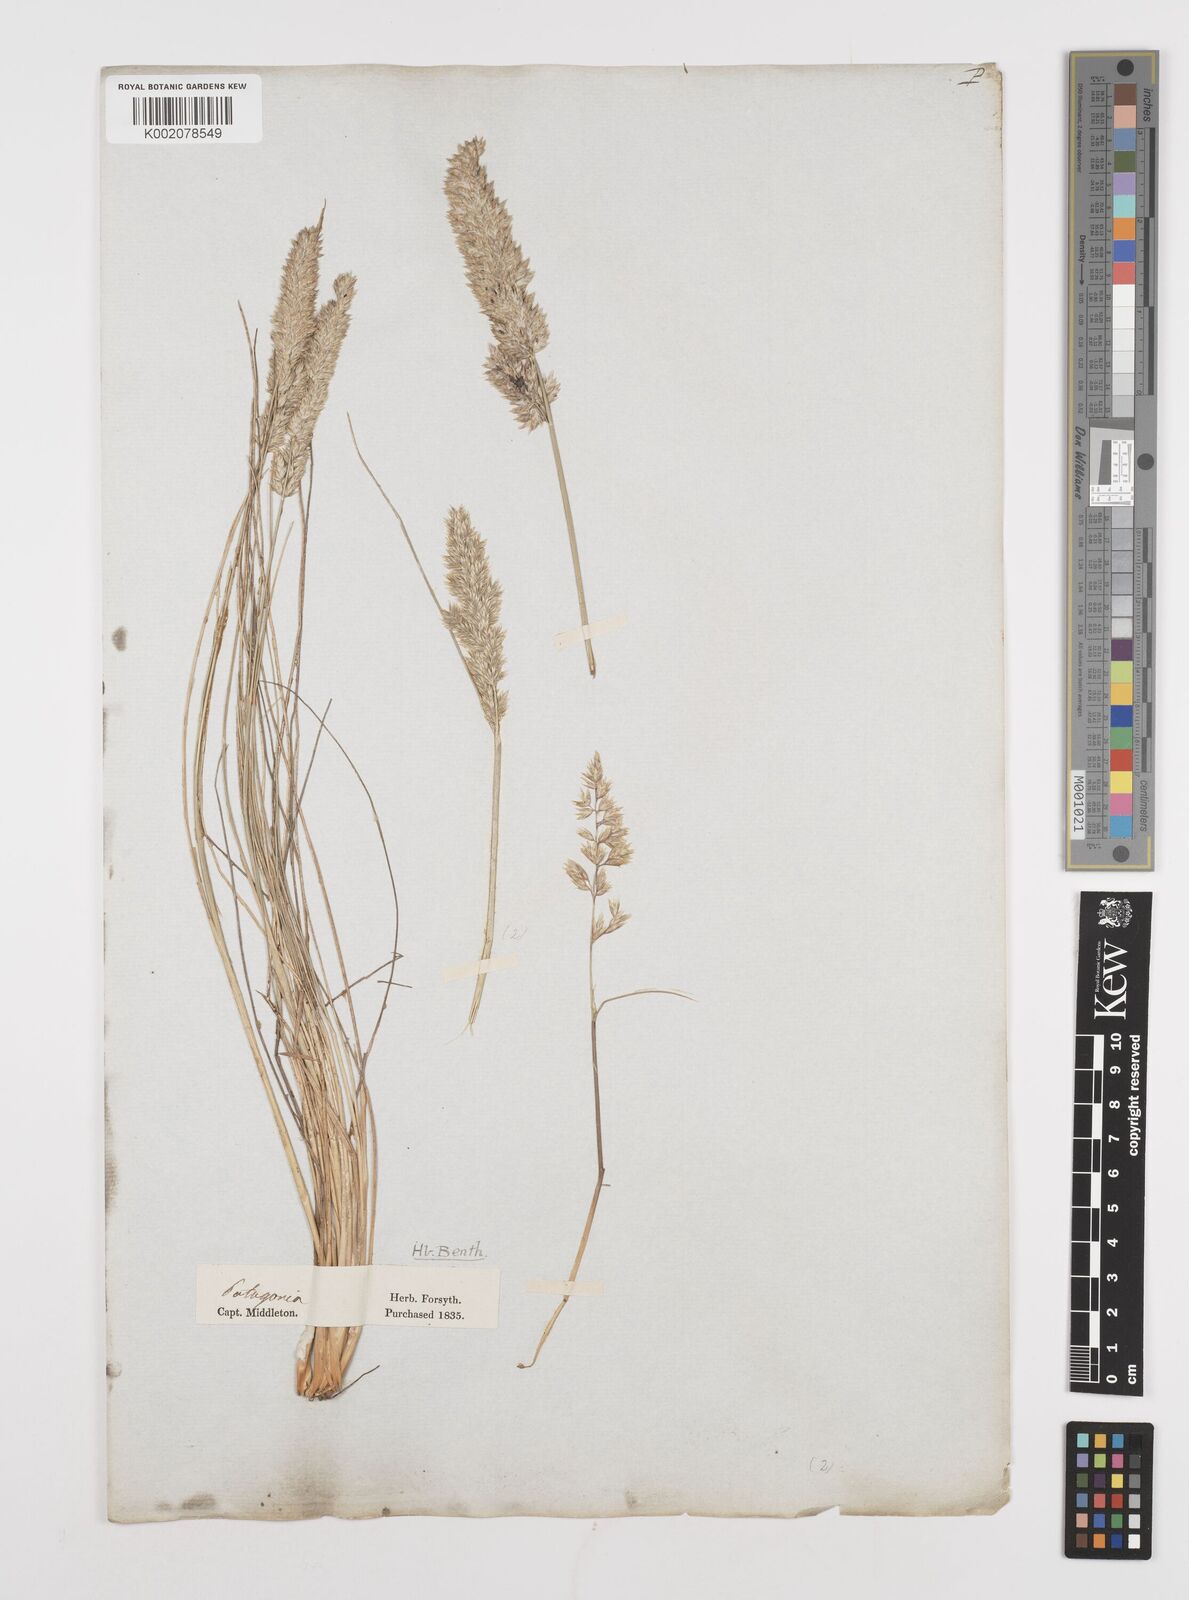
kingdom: Plantae
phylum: Tracheophyta
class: Liliopsida
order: Poales
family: Poaceae
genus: Poa
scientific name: Poa lanuginosa
